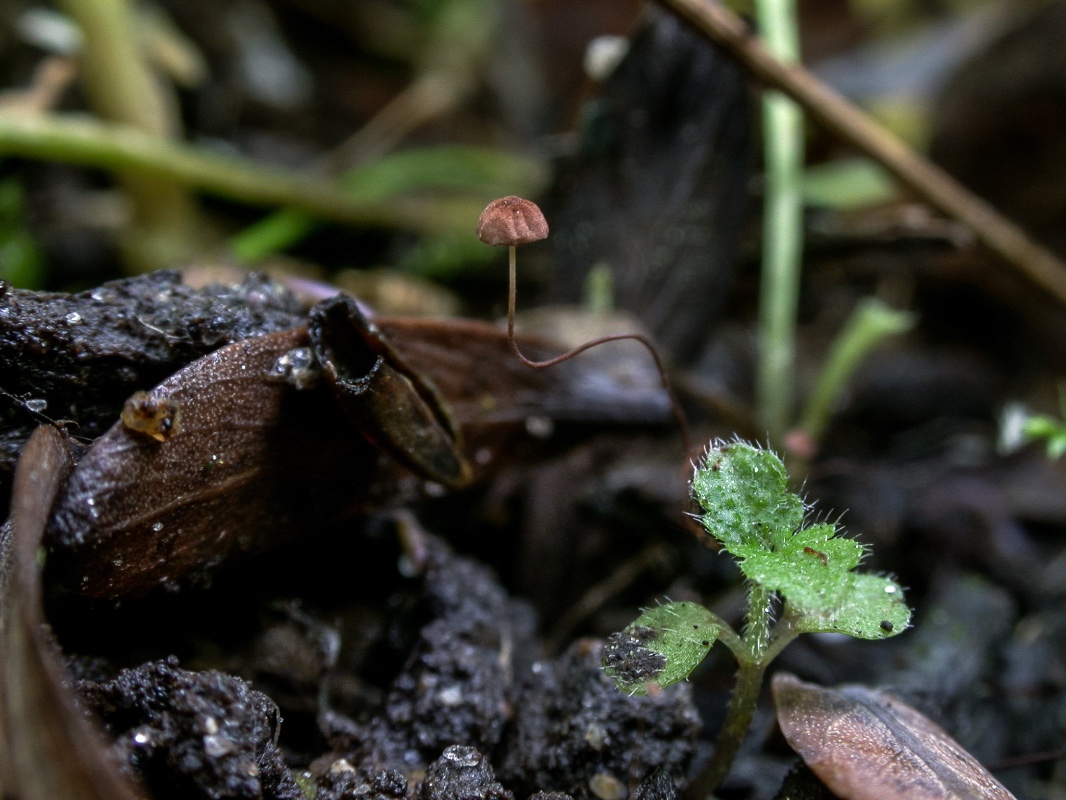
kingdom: Fungi
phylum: Basidiomycota
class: Agaricomycetes
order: Agaricales
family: Physalacriaceae
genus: Cryptomarasmius
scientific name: Cryptomarasmius minutus
